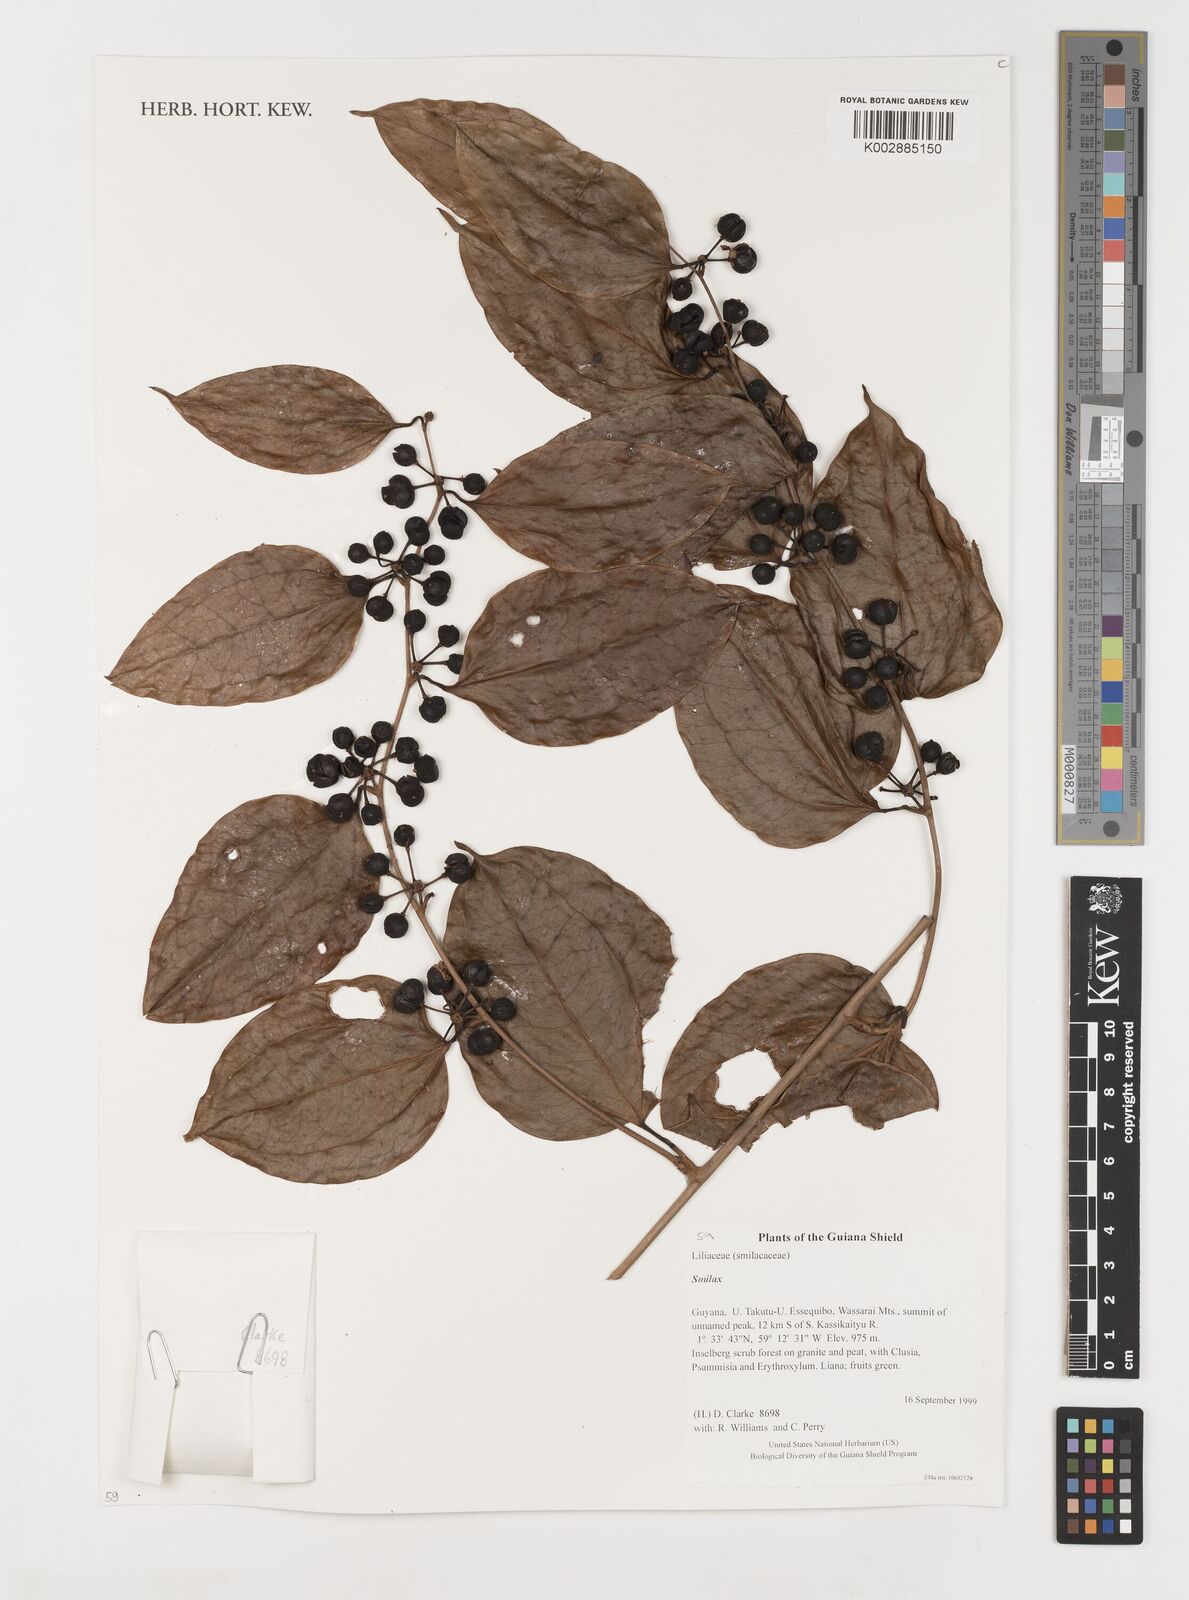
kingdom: Plantae
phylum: Tracheophyta
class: Liliopsida
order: Liliales
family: Smilacaceae
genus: Smilax
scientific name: Smilax
